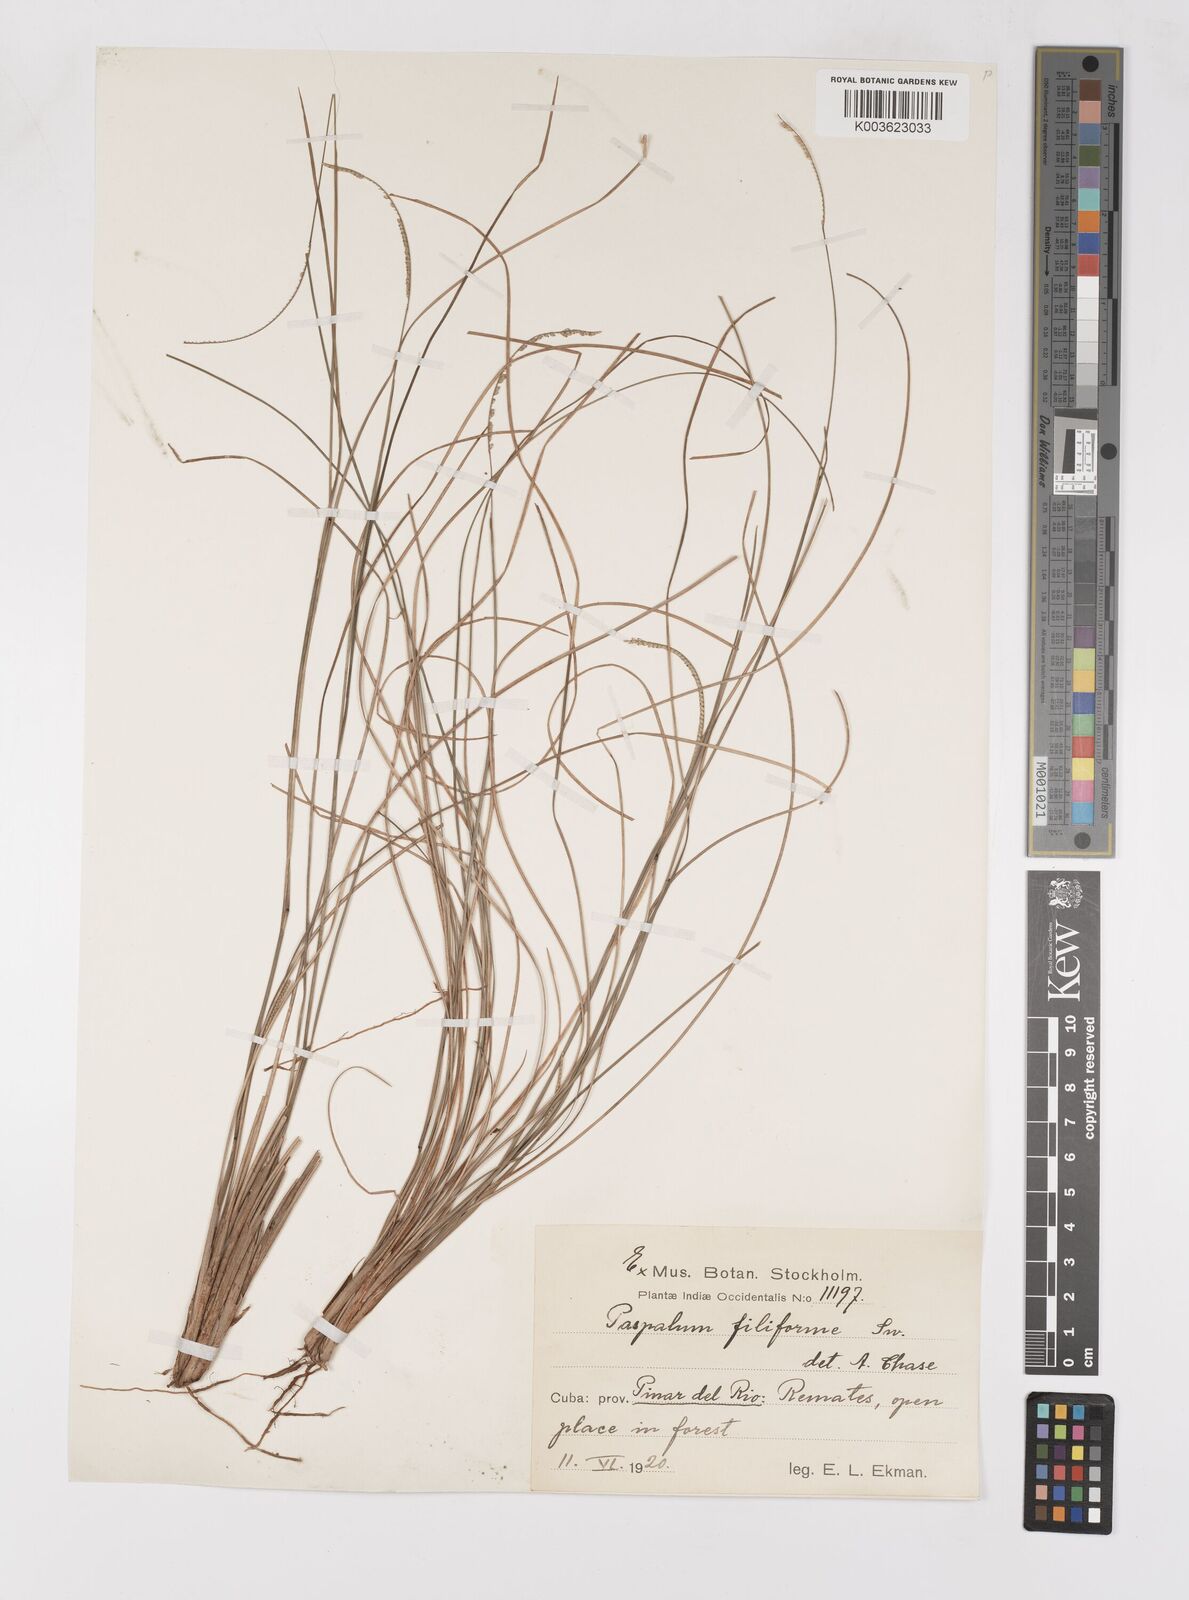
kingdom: Plantae
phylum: Tracheophyta
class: Liliopsida
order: Poales
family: Poaceae
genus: Paspalum
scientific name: Paspalum filiforme
